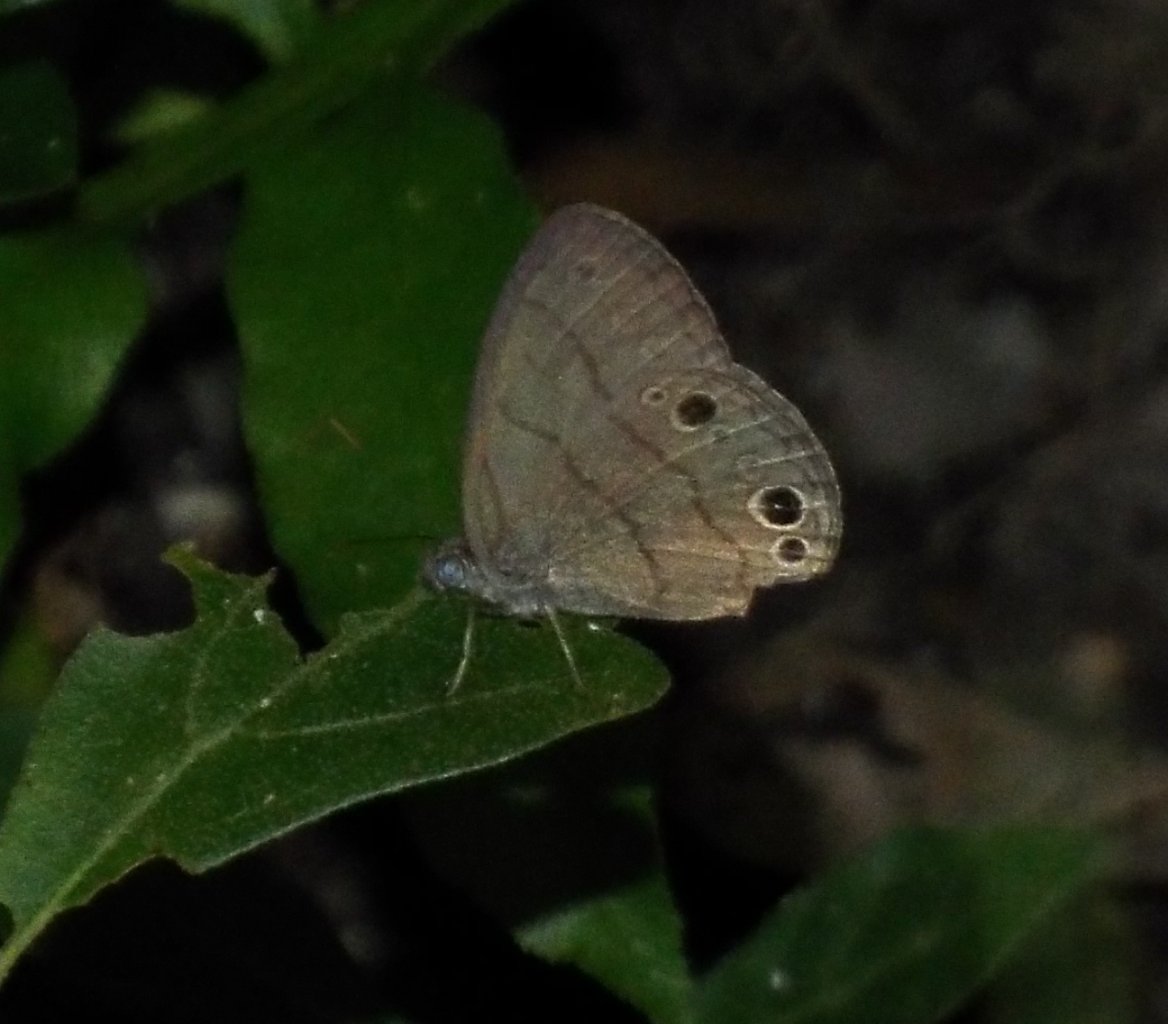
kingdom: Animalia
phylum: Arthropoda
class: Insecta
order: Lepidoptera
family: Nymphalidae
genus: Hermeuptychia
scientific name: Hermeuptychia intricata
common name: Intricate Satyr
